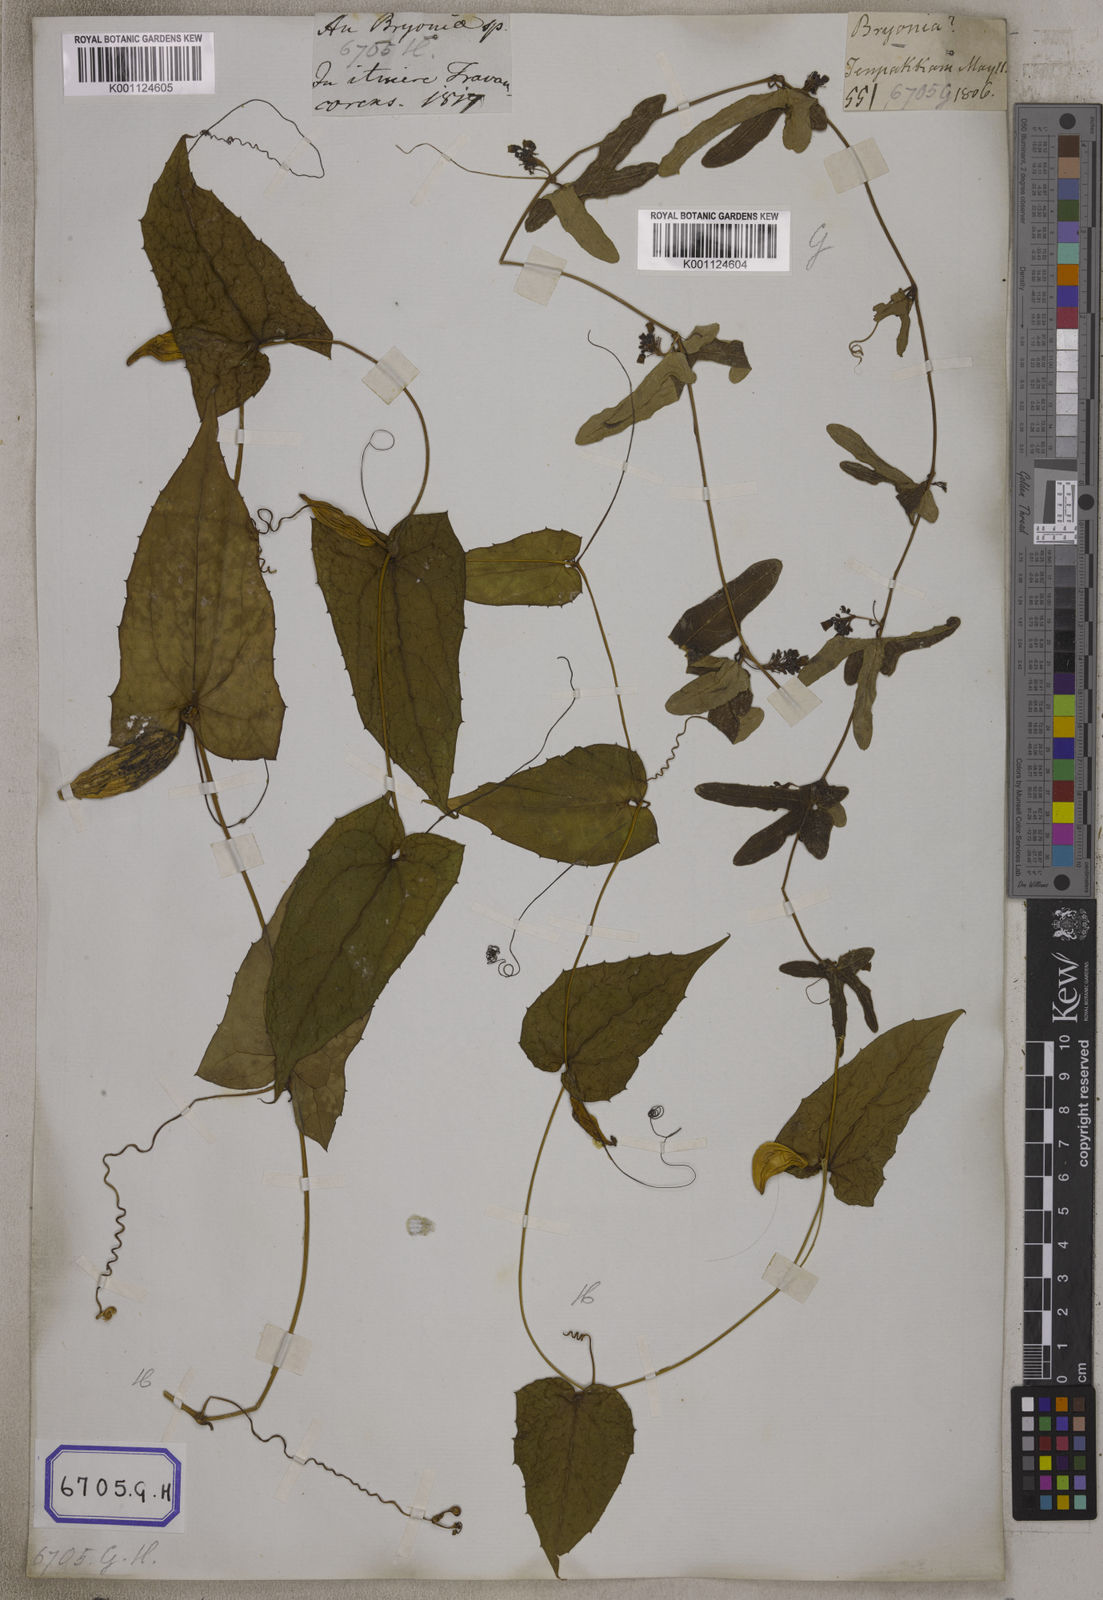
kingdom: Plantae
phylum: Tracheophyta
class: Magnoliopsida
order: Cucurbitales
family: Cucurbitaceae
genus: Bryonia
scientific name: Bryonia
